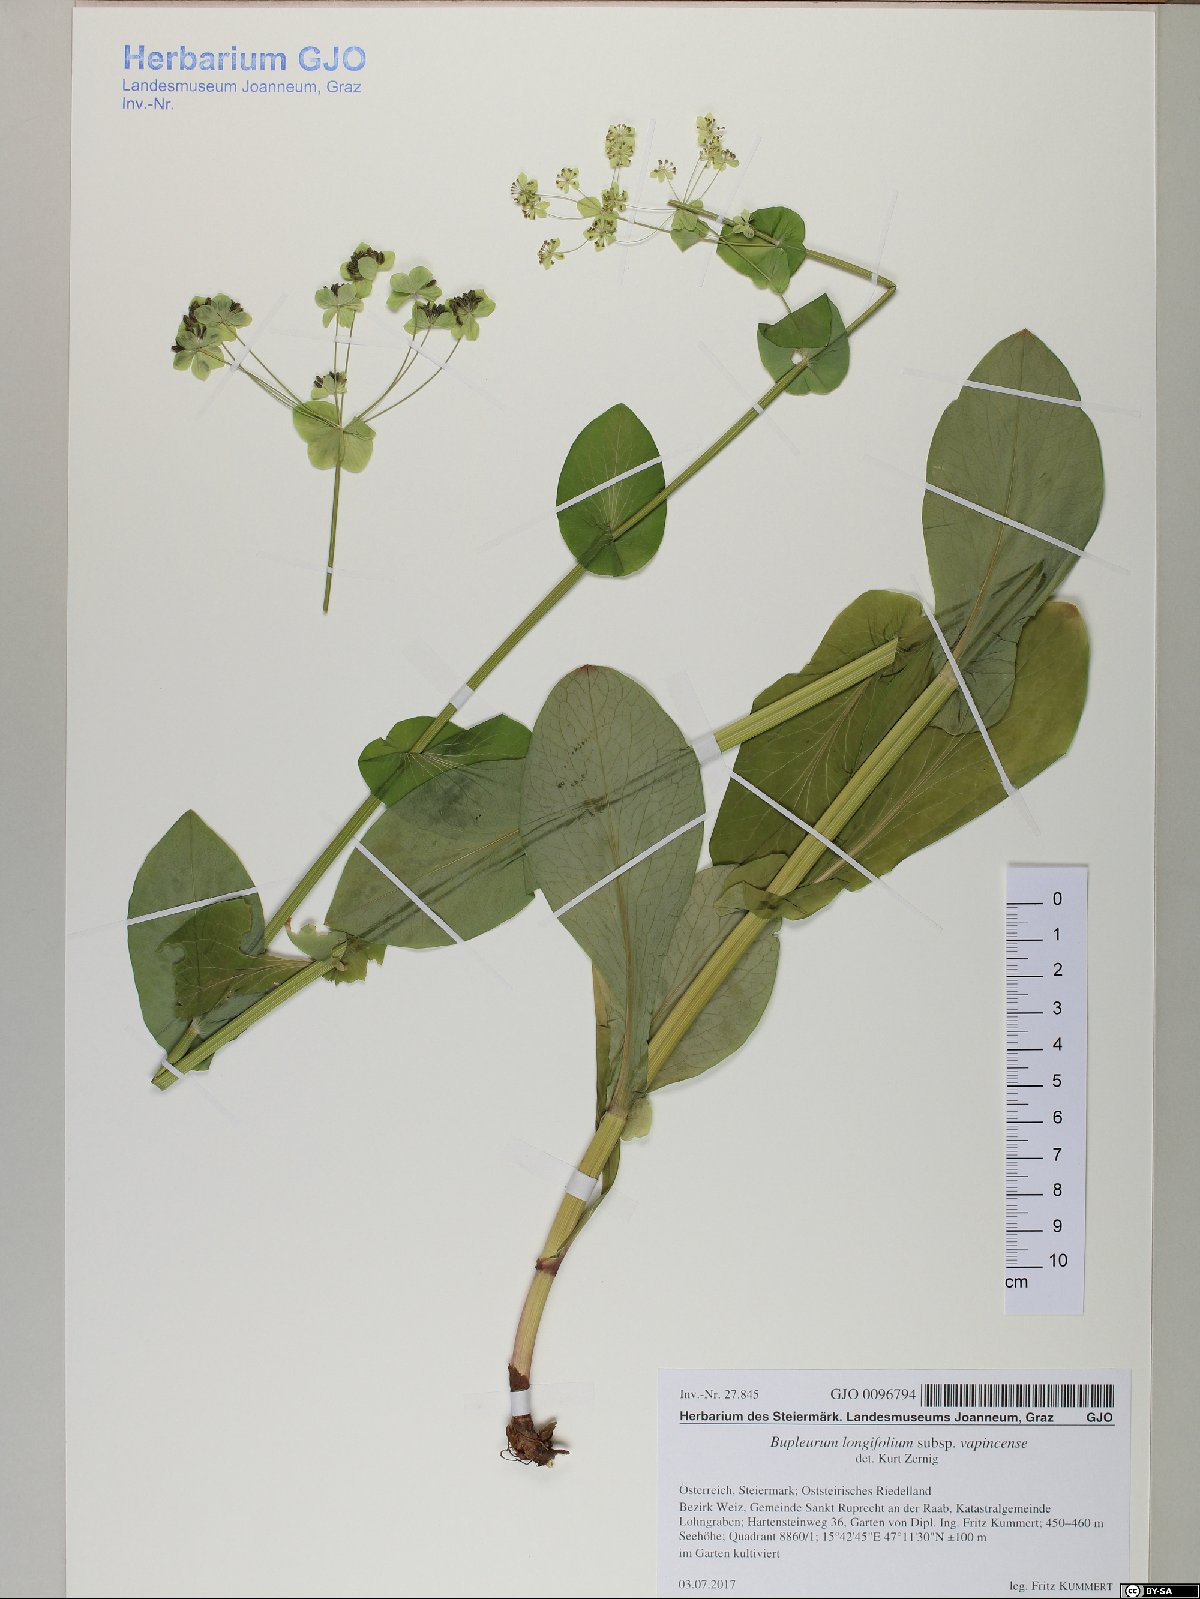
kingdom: Plantae
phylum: Tracheophyta
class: Magnoliopsida
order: Apiales
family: Apiaceae
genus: Bupleurum
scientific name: Bupleurum longifolium
